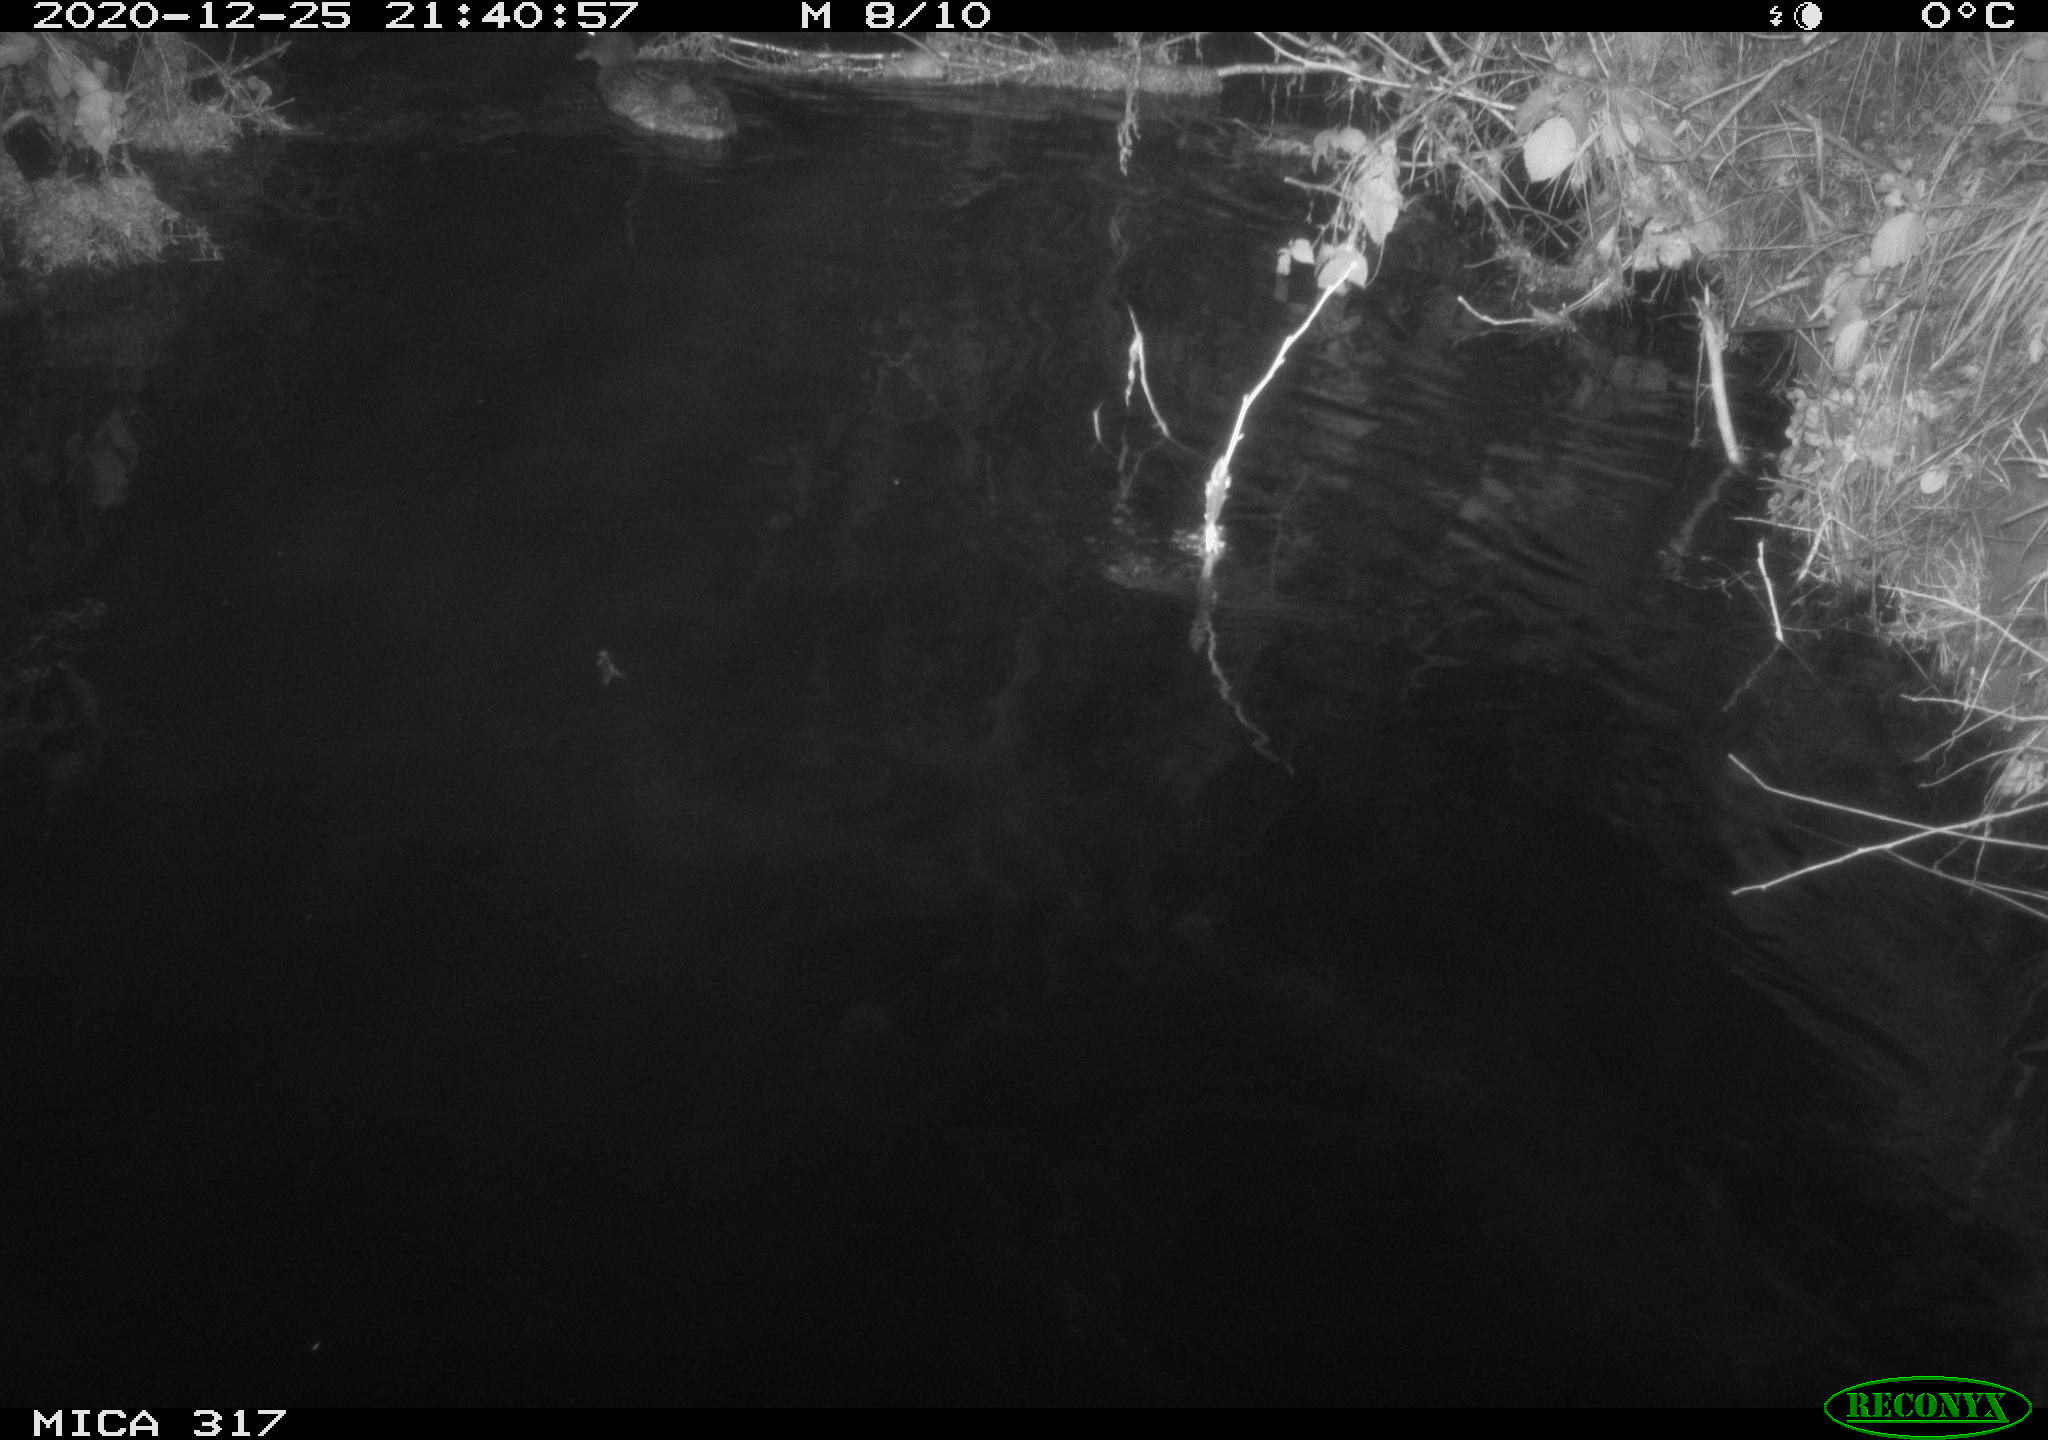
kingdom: Animalia
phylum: Chordata
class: Aves
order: Anseriformes
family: Anatidae
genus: Anas
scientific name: Anas platyrhynchos
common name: Mallard
